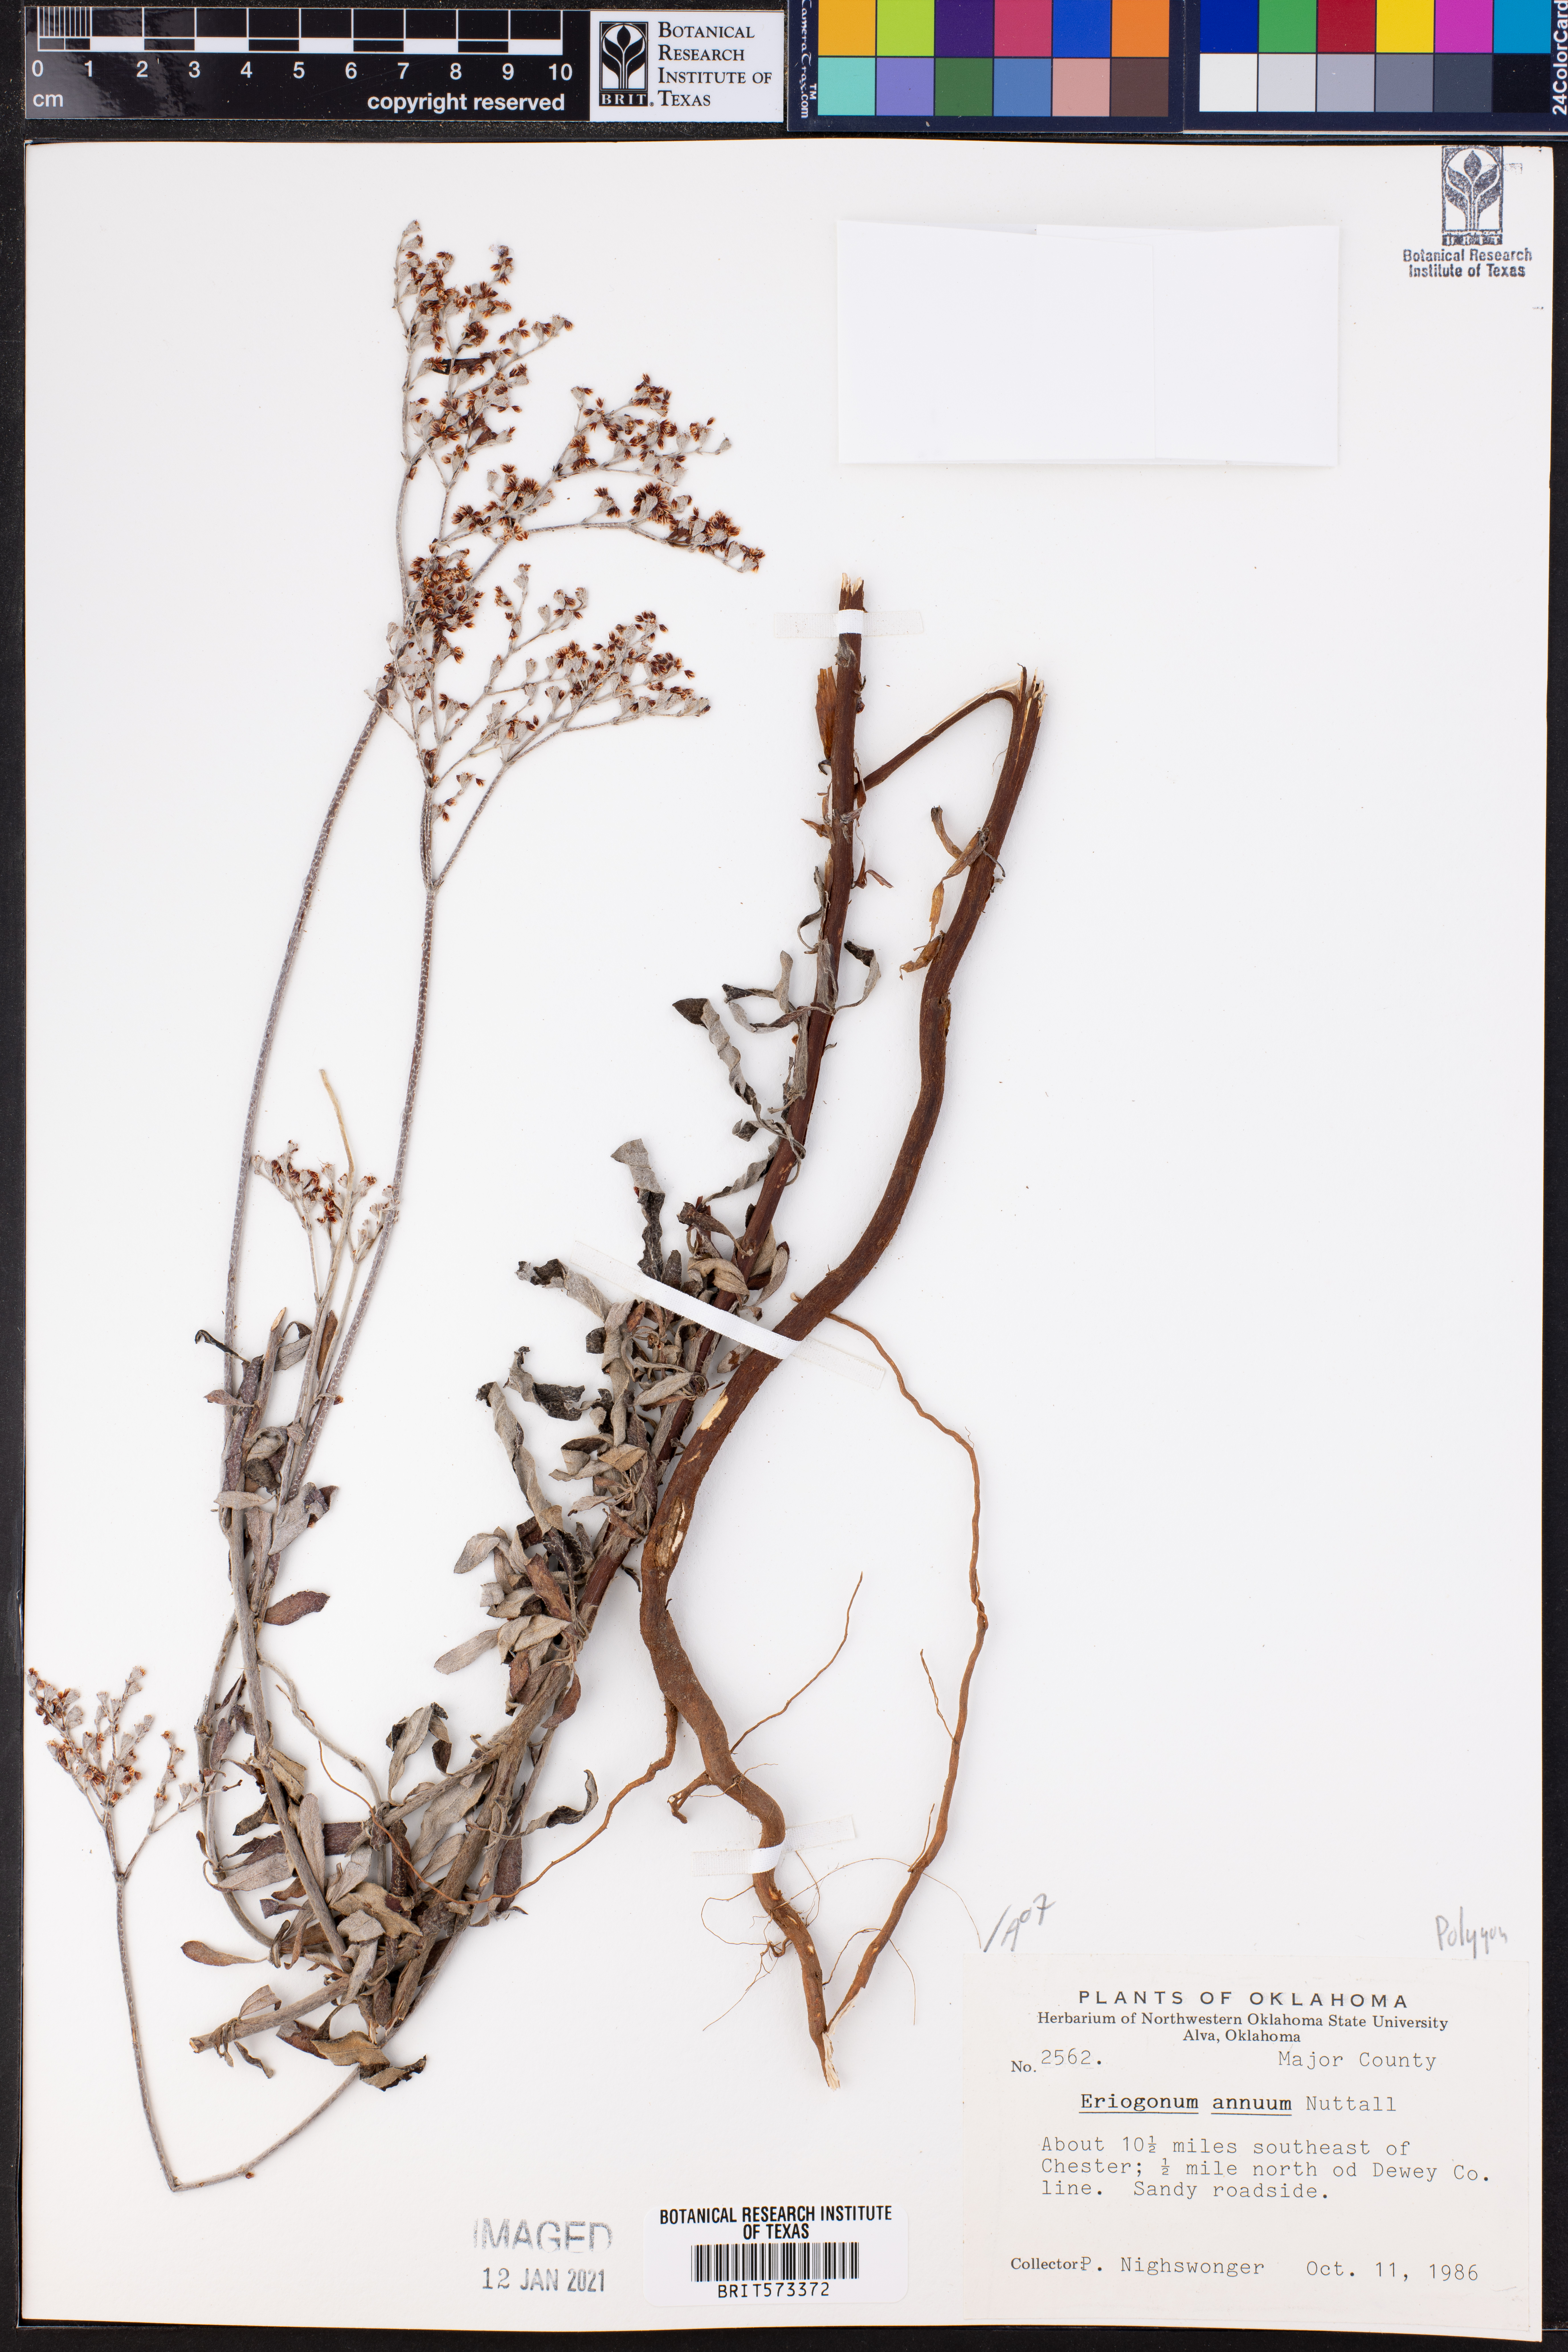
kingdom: Plantae
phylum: Tracheophyta
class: Magnoliopsida
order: Caryophyllales
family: Polygonaceae
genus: Eriogonum
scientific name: Eriogonum annuum
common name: Annual wild buckwheat
